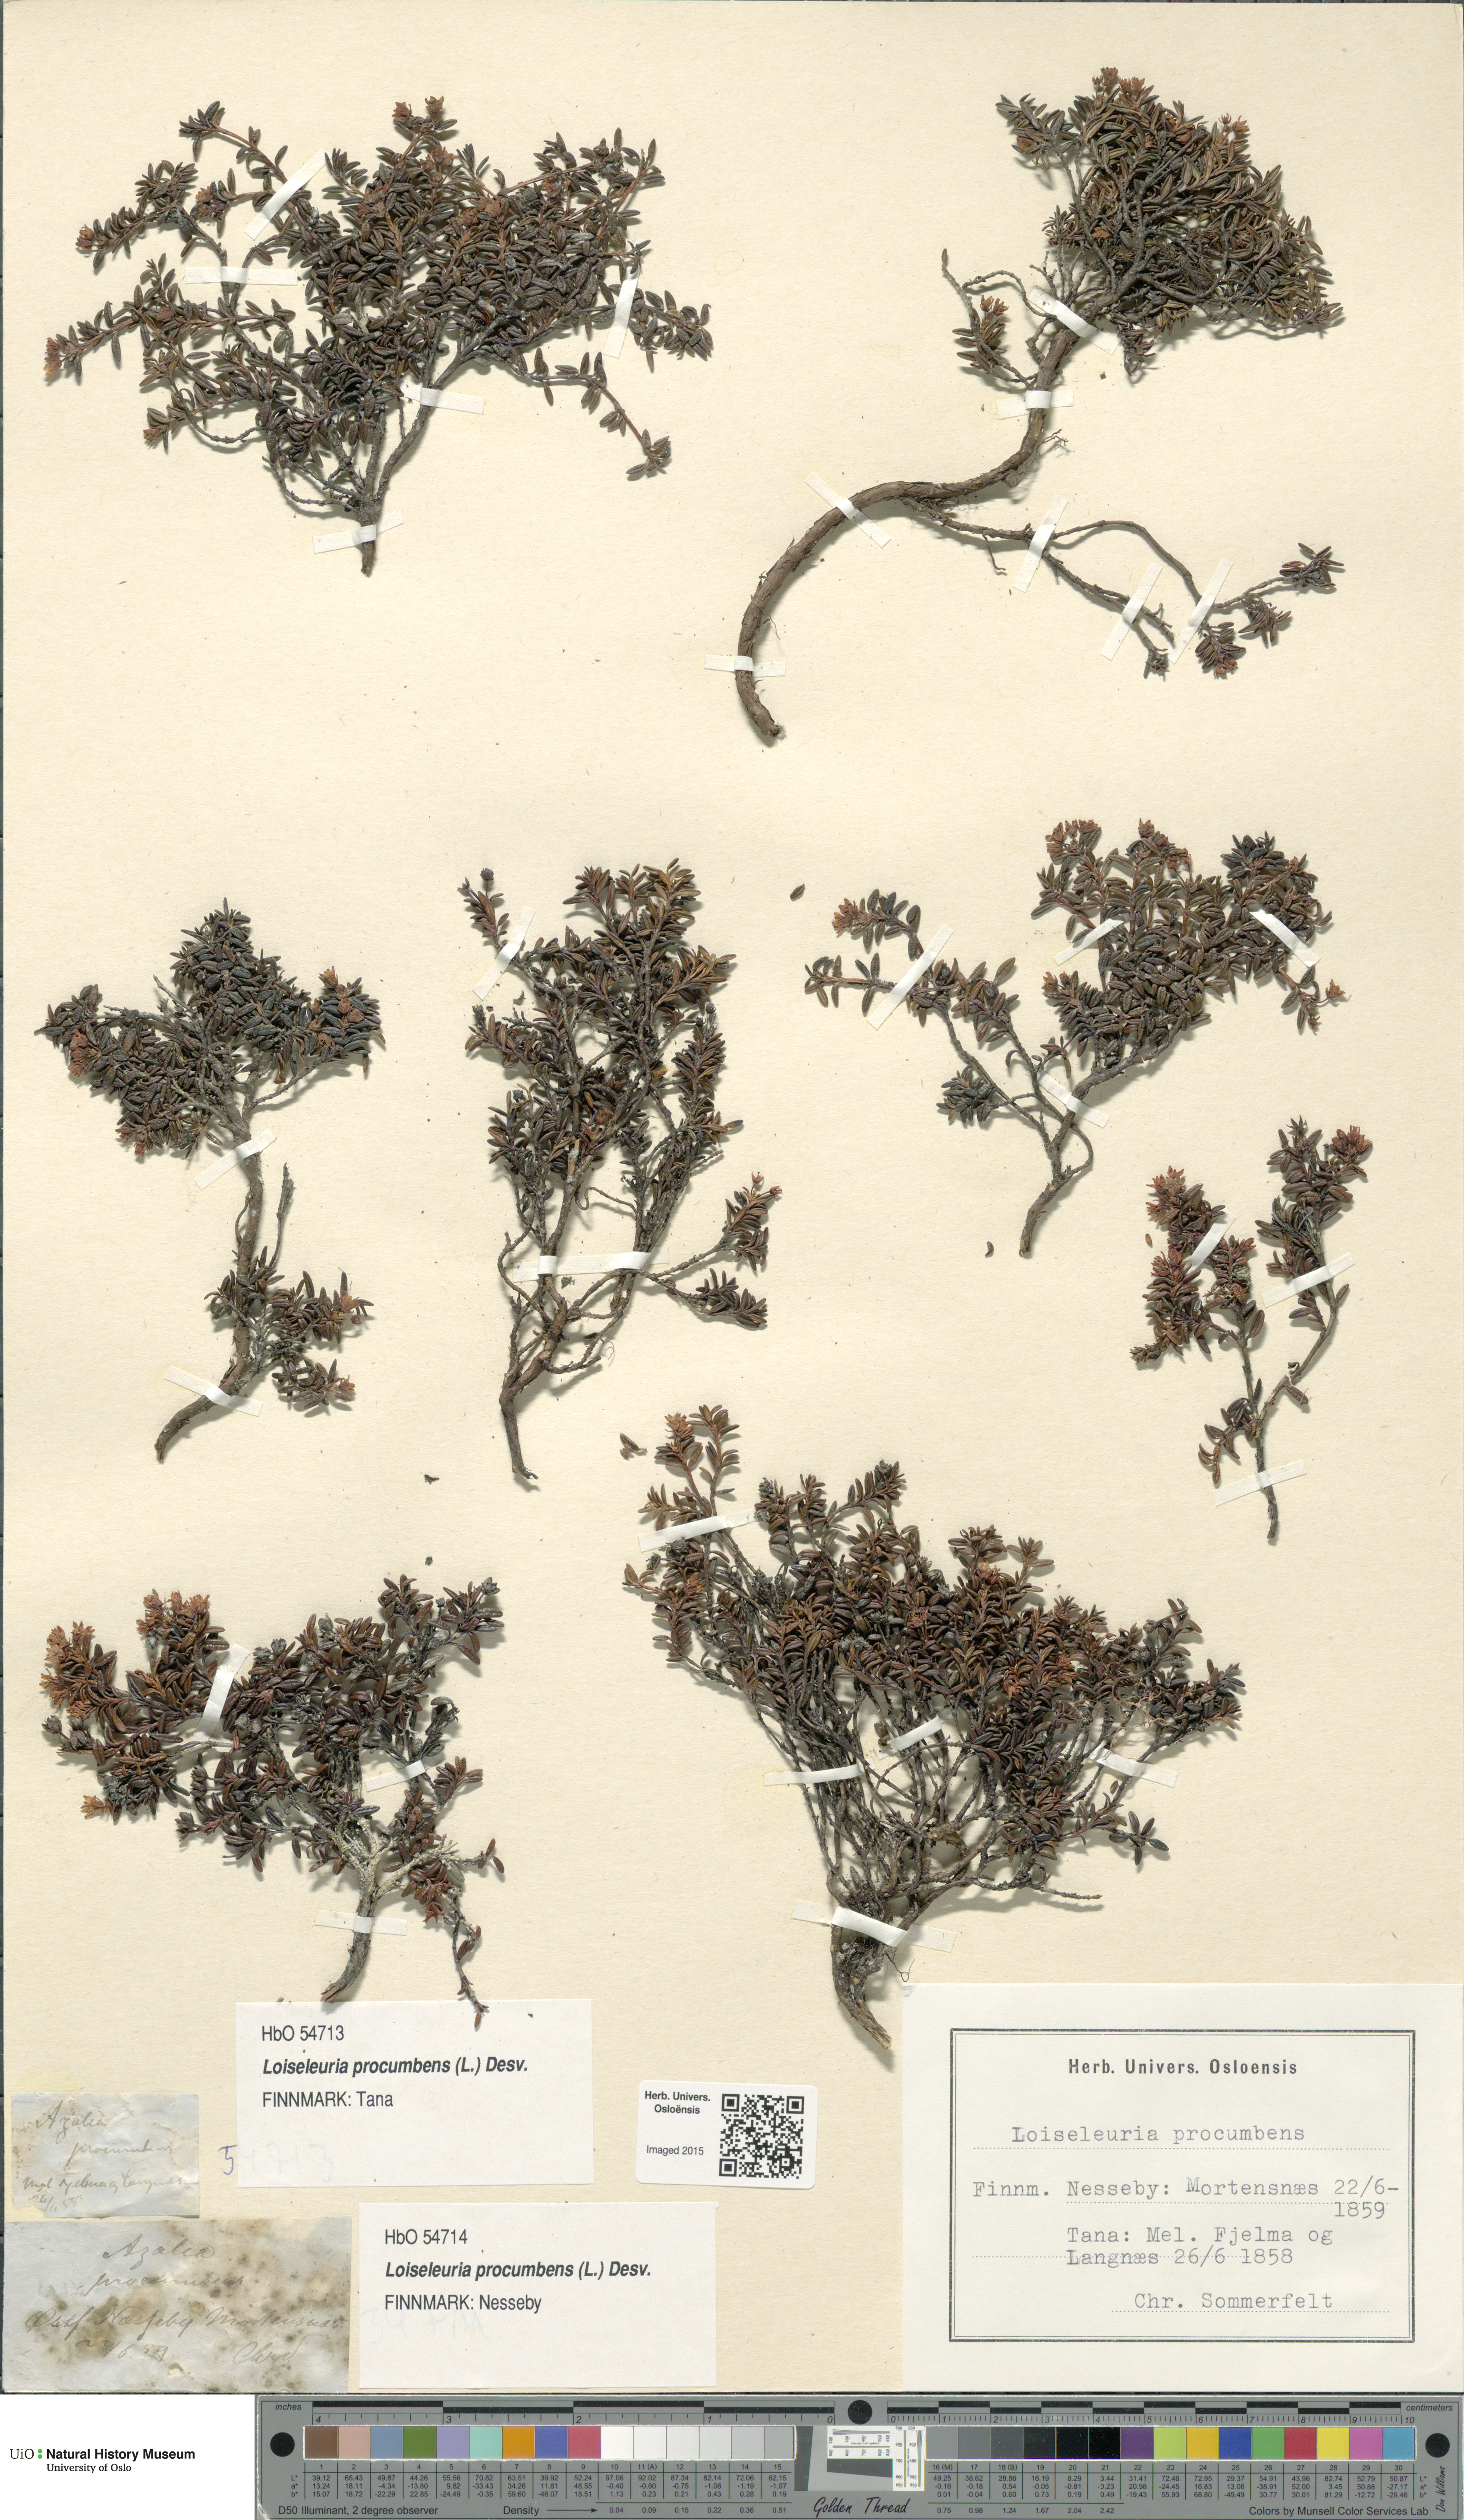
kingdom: Plantae
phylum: Tracheophyta
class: Magnoliopsida
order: Ericales
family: Ericaceae
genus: Kalmia
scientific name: Kalmia procumbens
